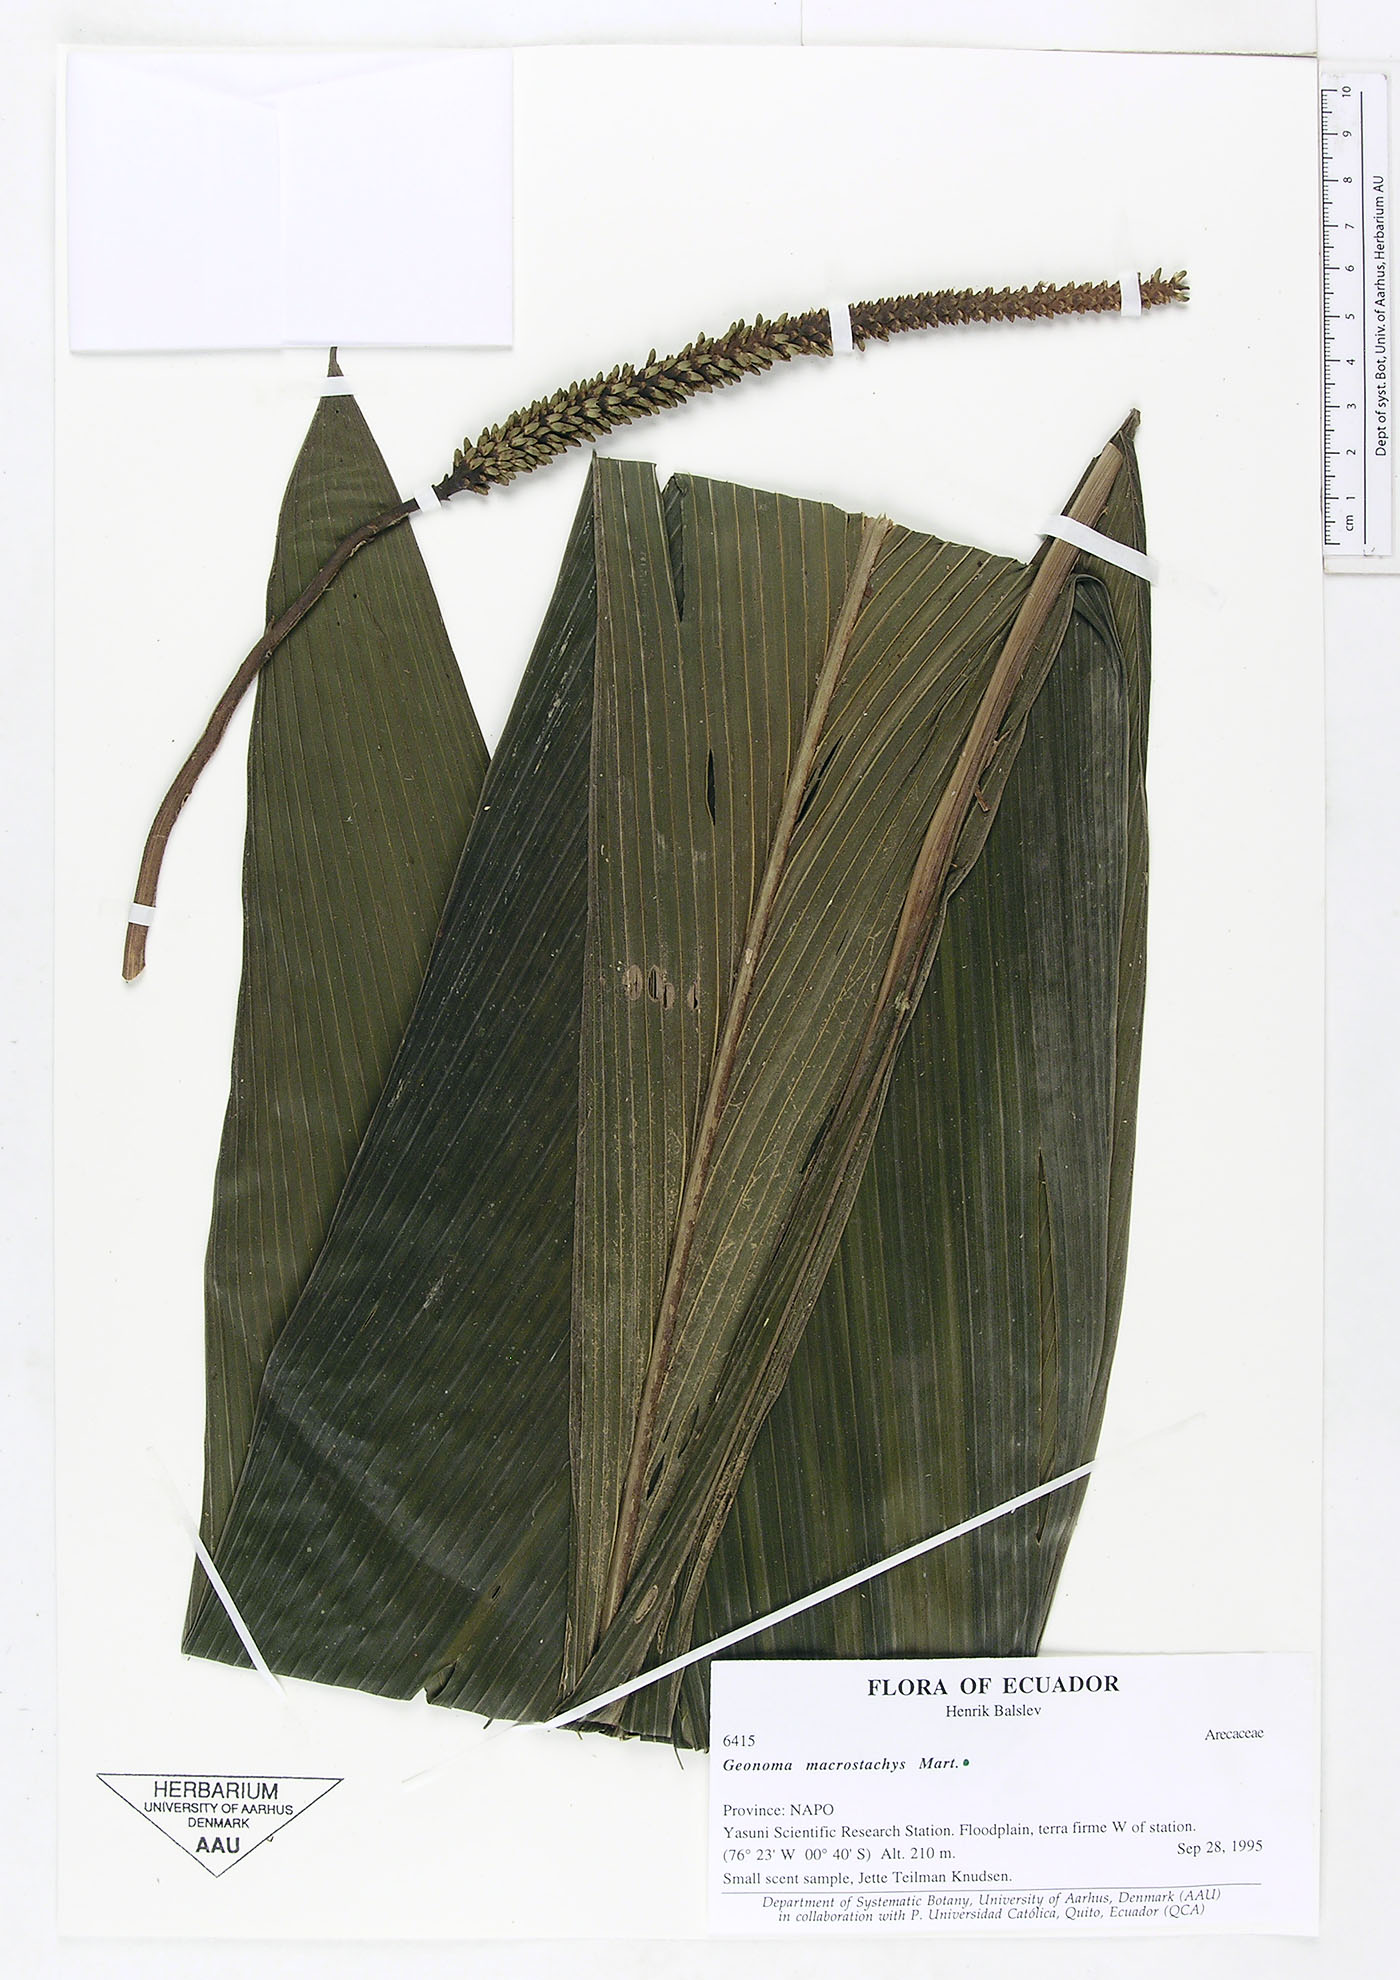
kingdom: Plantae
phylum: Tracheophyta
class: Liliopsida
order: Arecales
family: Arecaceae
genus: Geonoma
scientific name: Geonoma macrostachys
